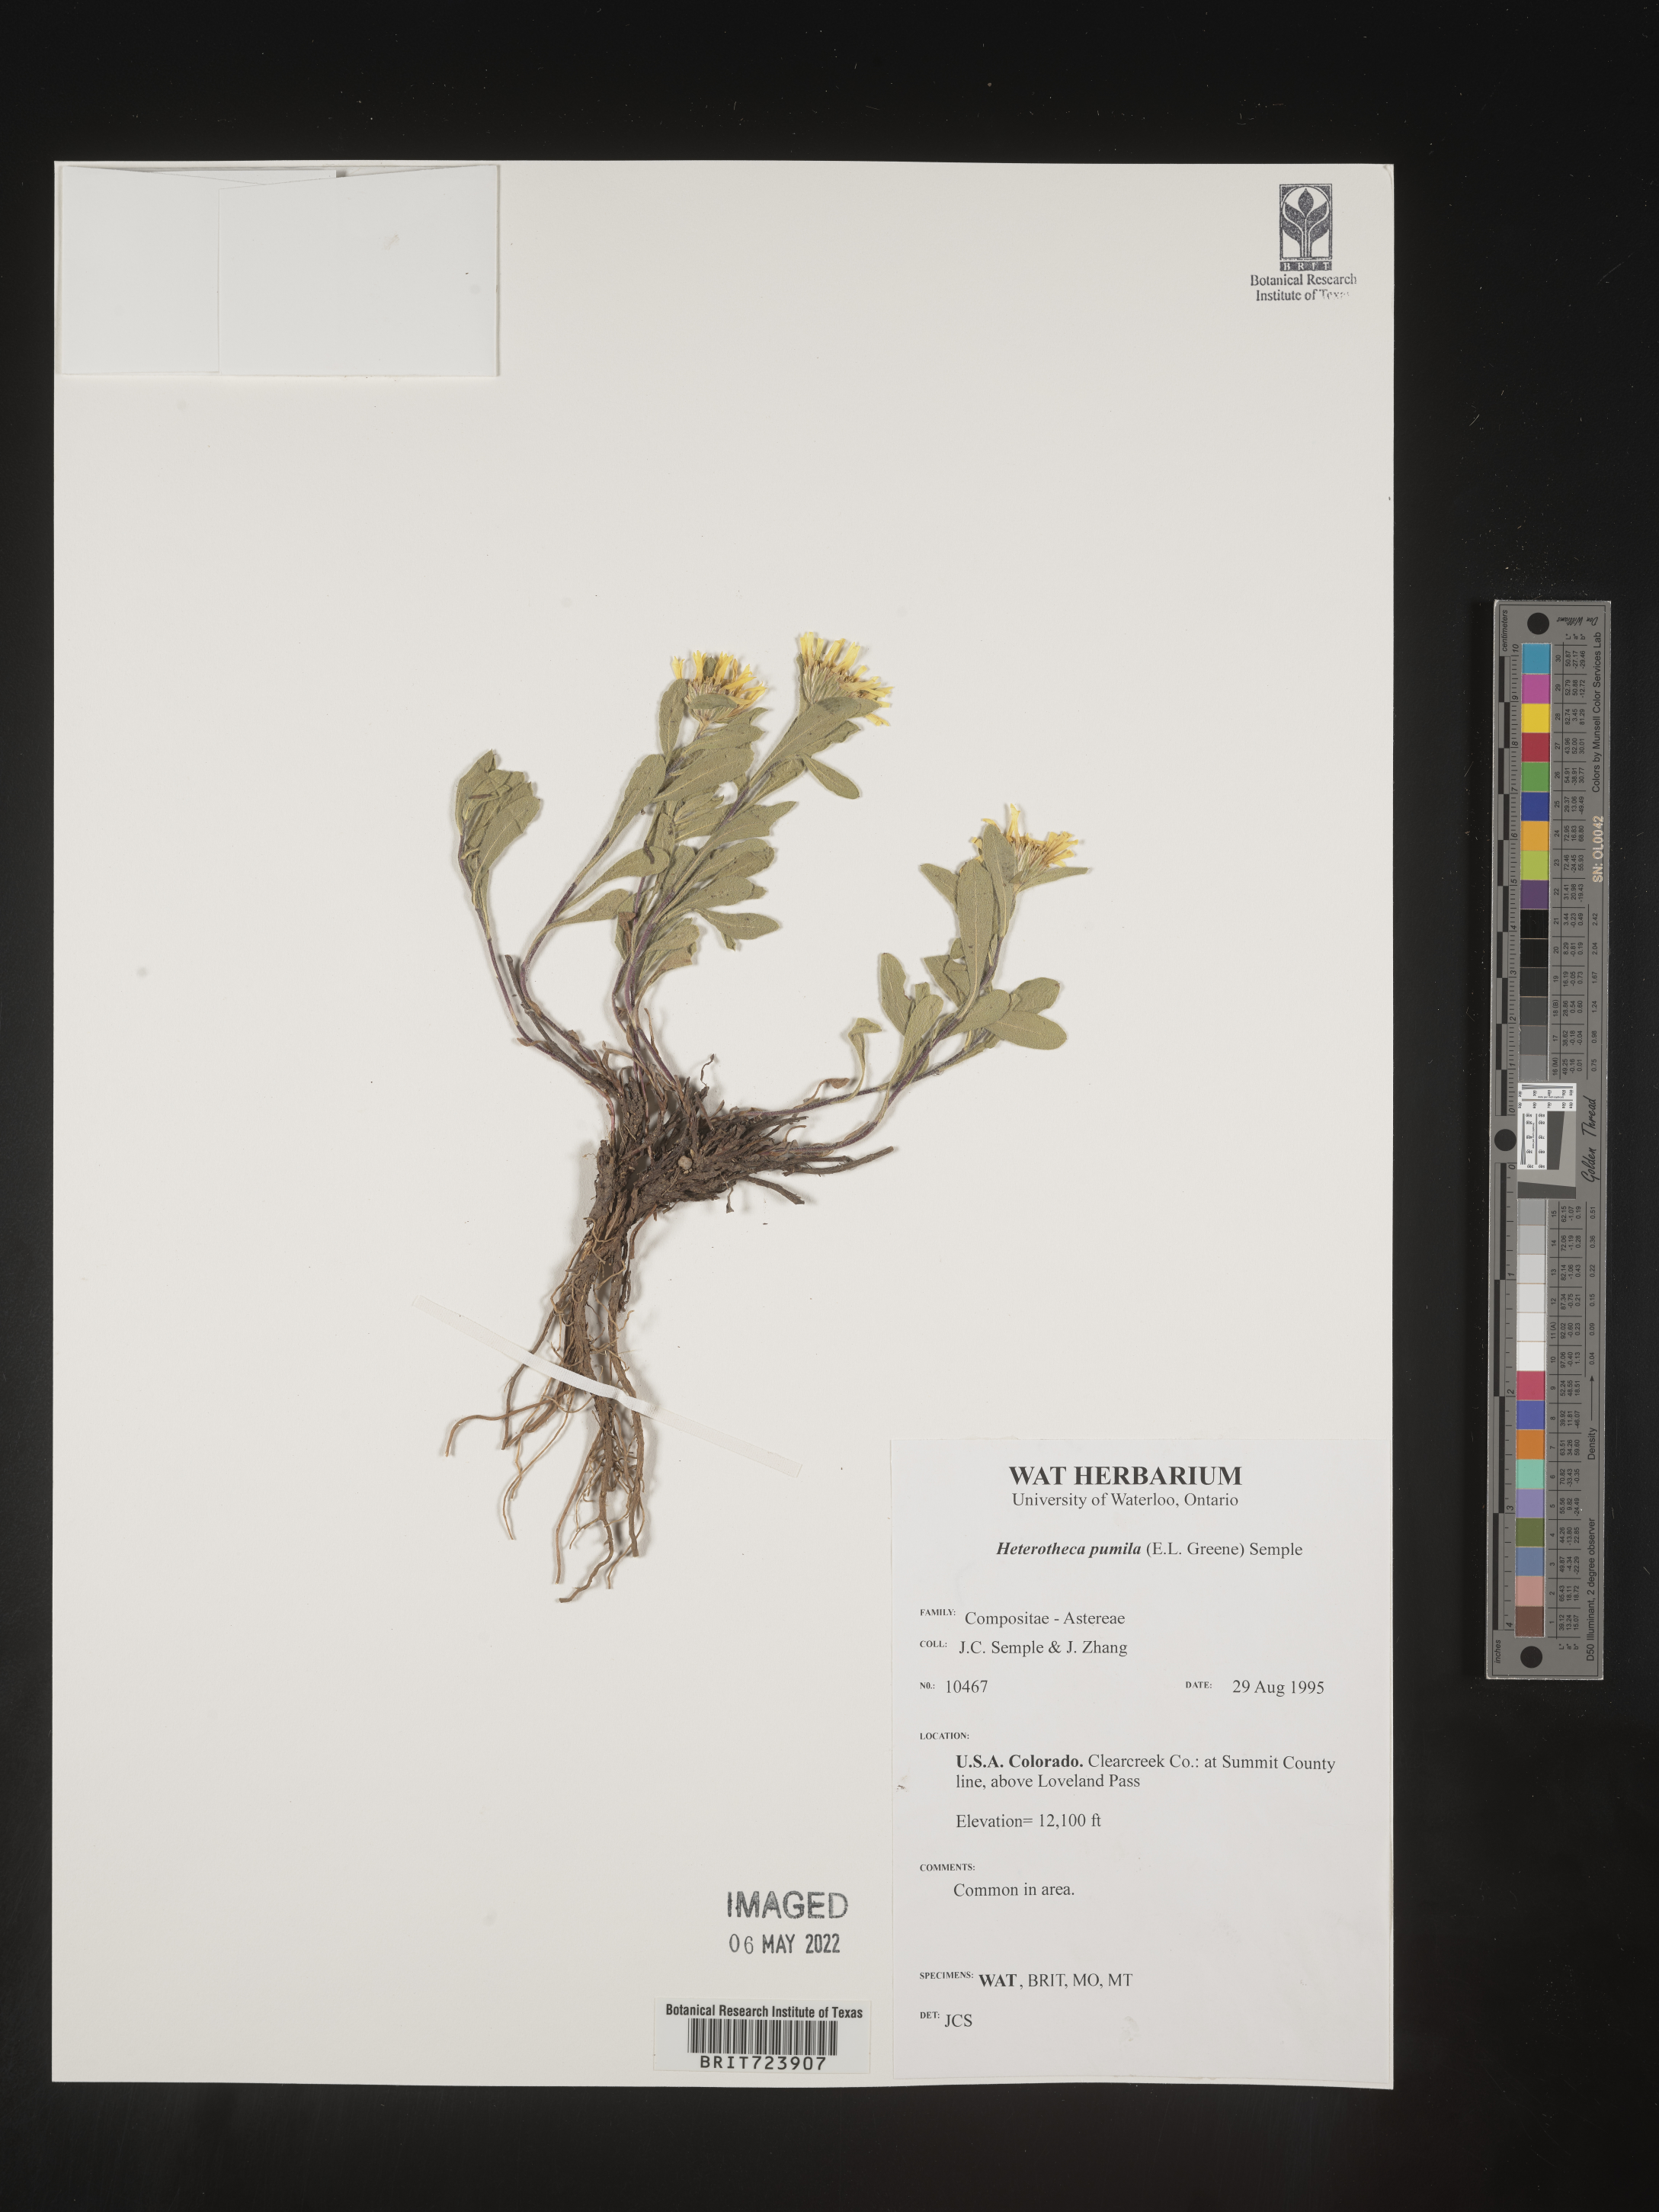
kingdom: Plantae
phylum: Tracheophyta
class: Magnoliopsida
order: Asterales
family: Asteraceae
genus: Heterotheca
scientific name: Heterotheca pumila
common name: Alpine golden-aster
